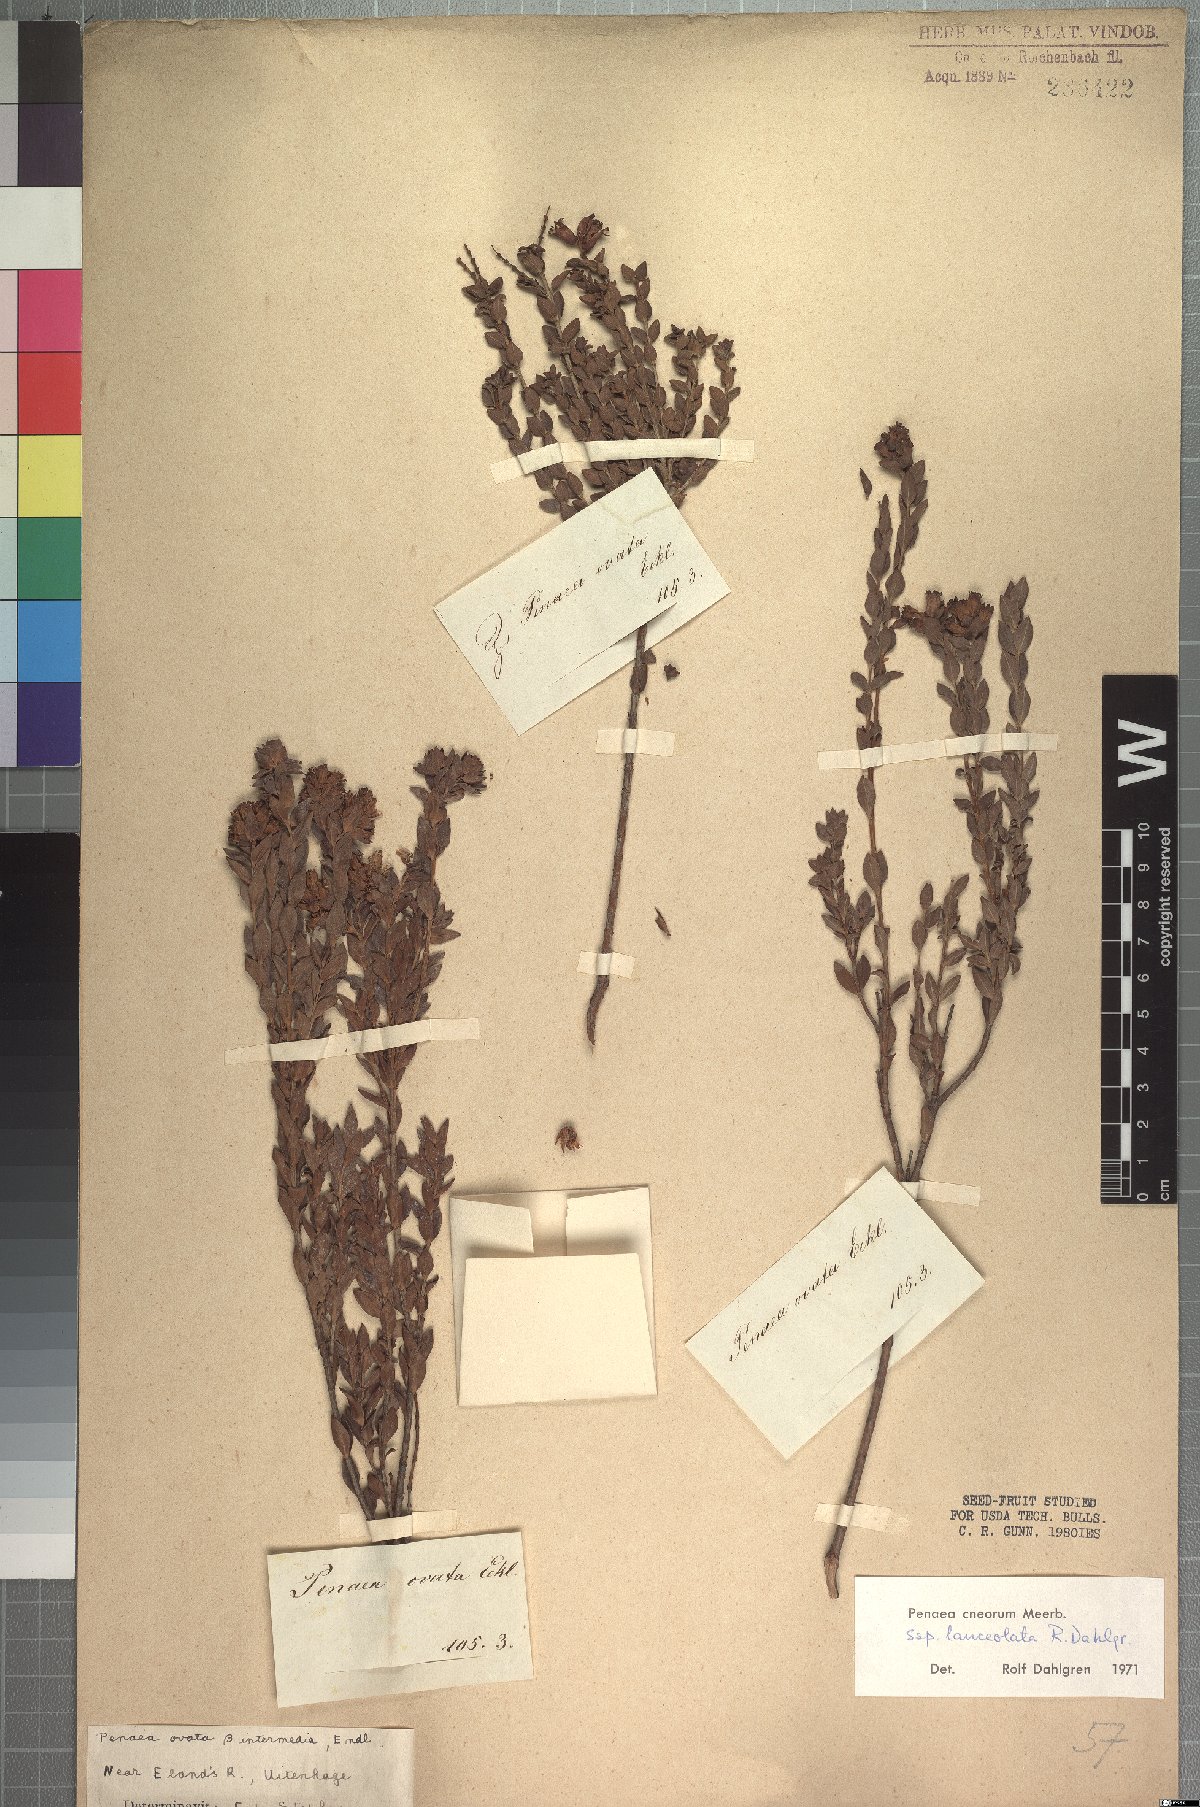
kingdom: Plantae
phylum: Tracheophyta
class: Magnoliopsida
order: Myrtales
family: Penaeaceae
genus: Penaea
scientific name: Penaea cneorum
